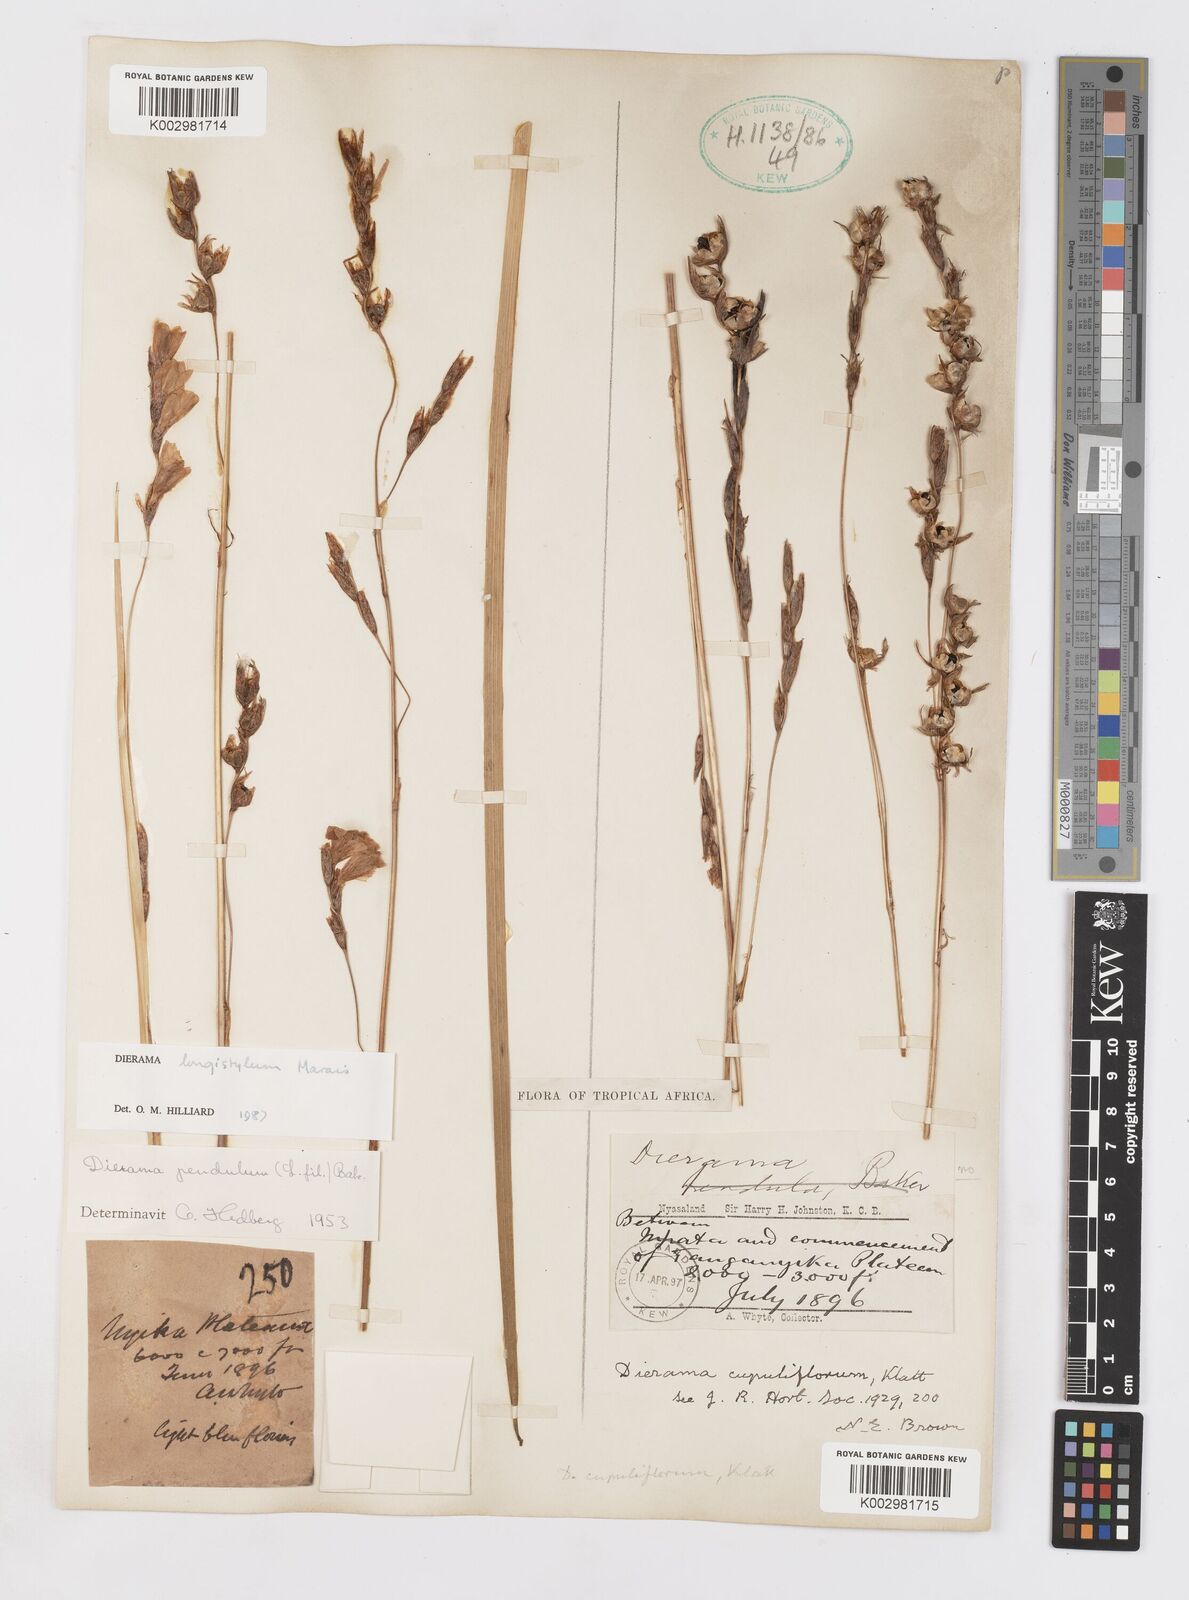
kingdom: Plantae
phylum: Tracheophyta
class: Liliopsida
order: Asparagales
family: Iridaceae
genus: Dierama
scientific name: Dierama longistylum
